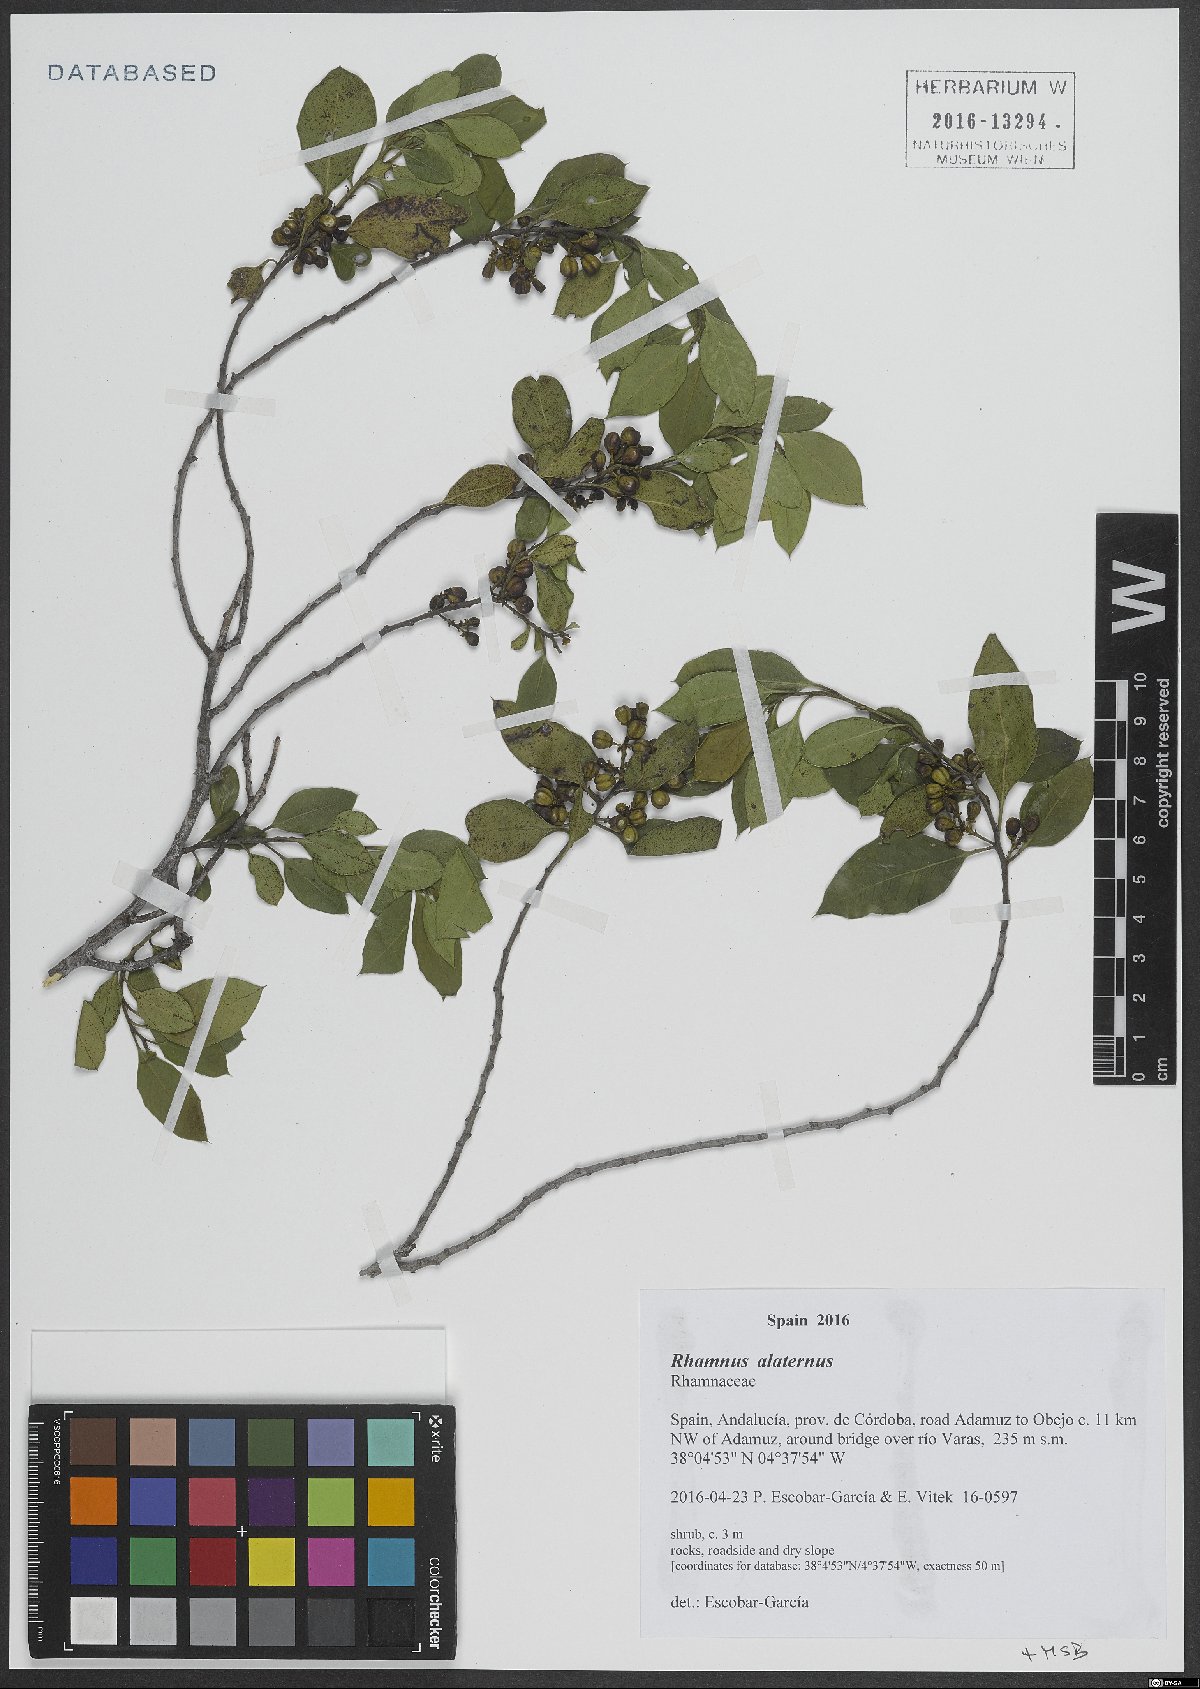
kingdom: Plantae
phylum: Tracheophyta
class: Magnoliopsida
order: Rosales
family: Rhamnaceae
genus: Rhamnus
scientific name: Rhamnus alaternus
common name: Mediterranean buckthorn
